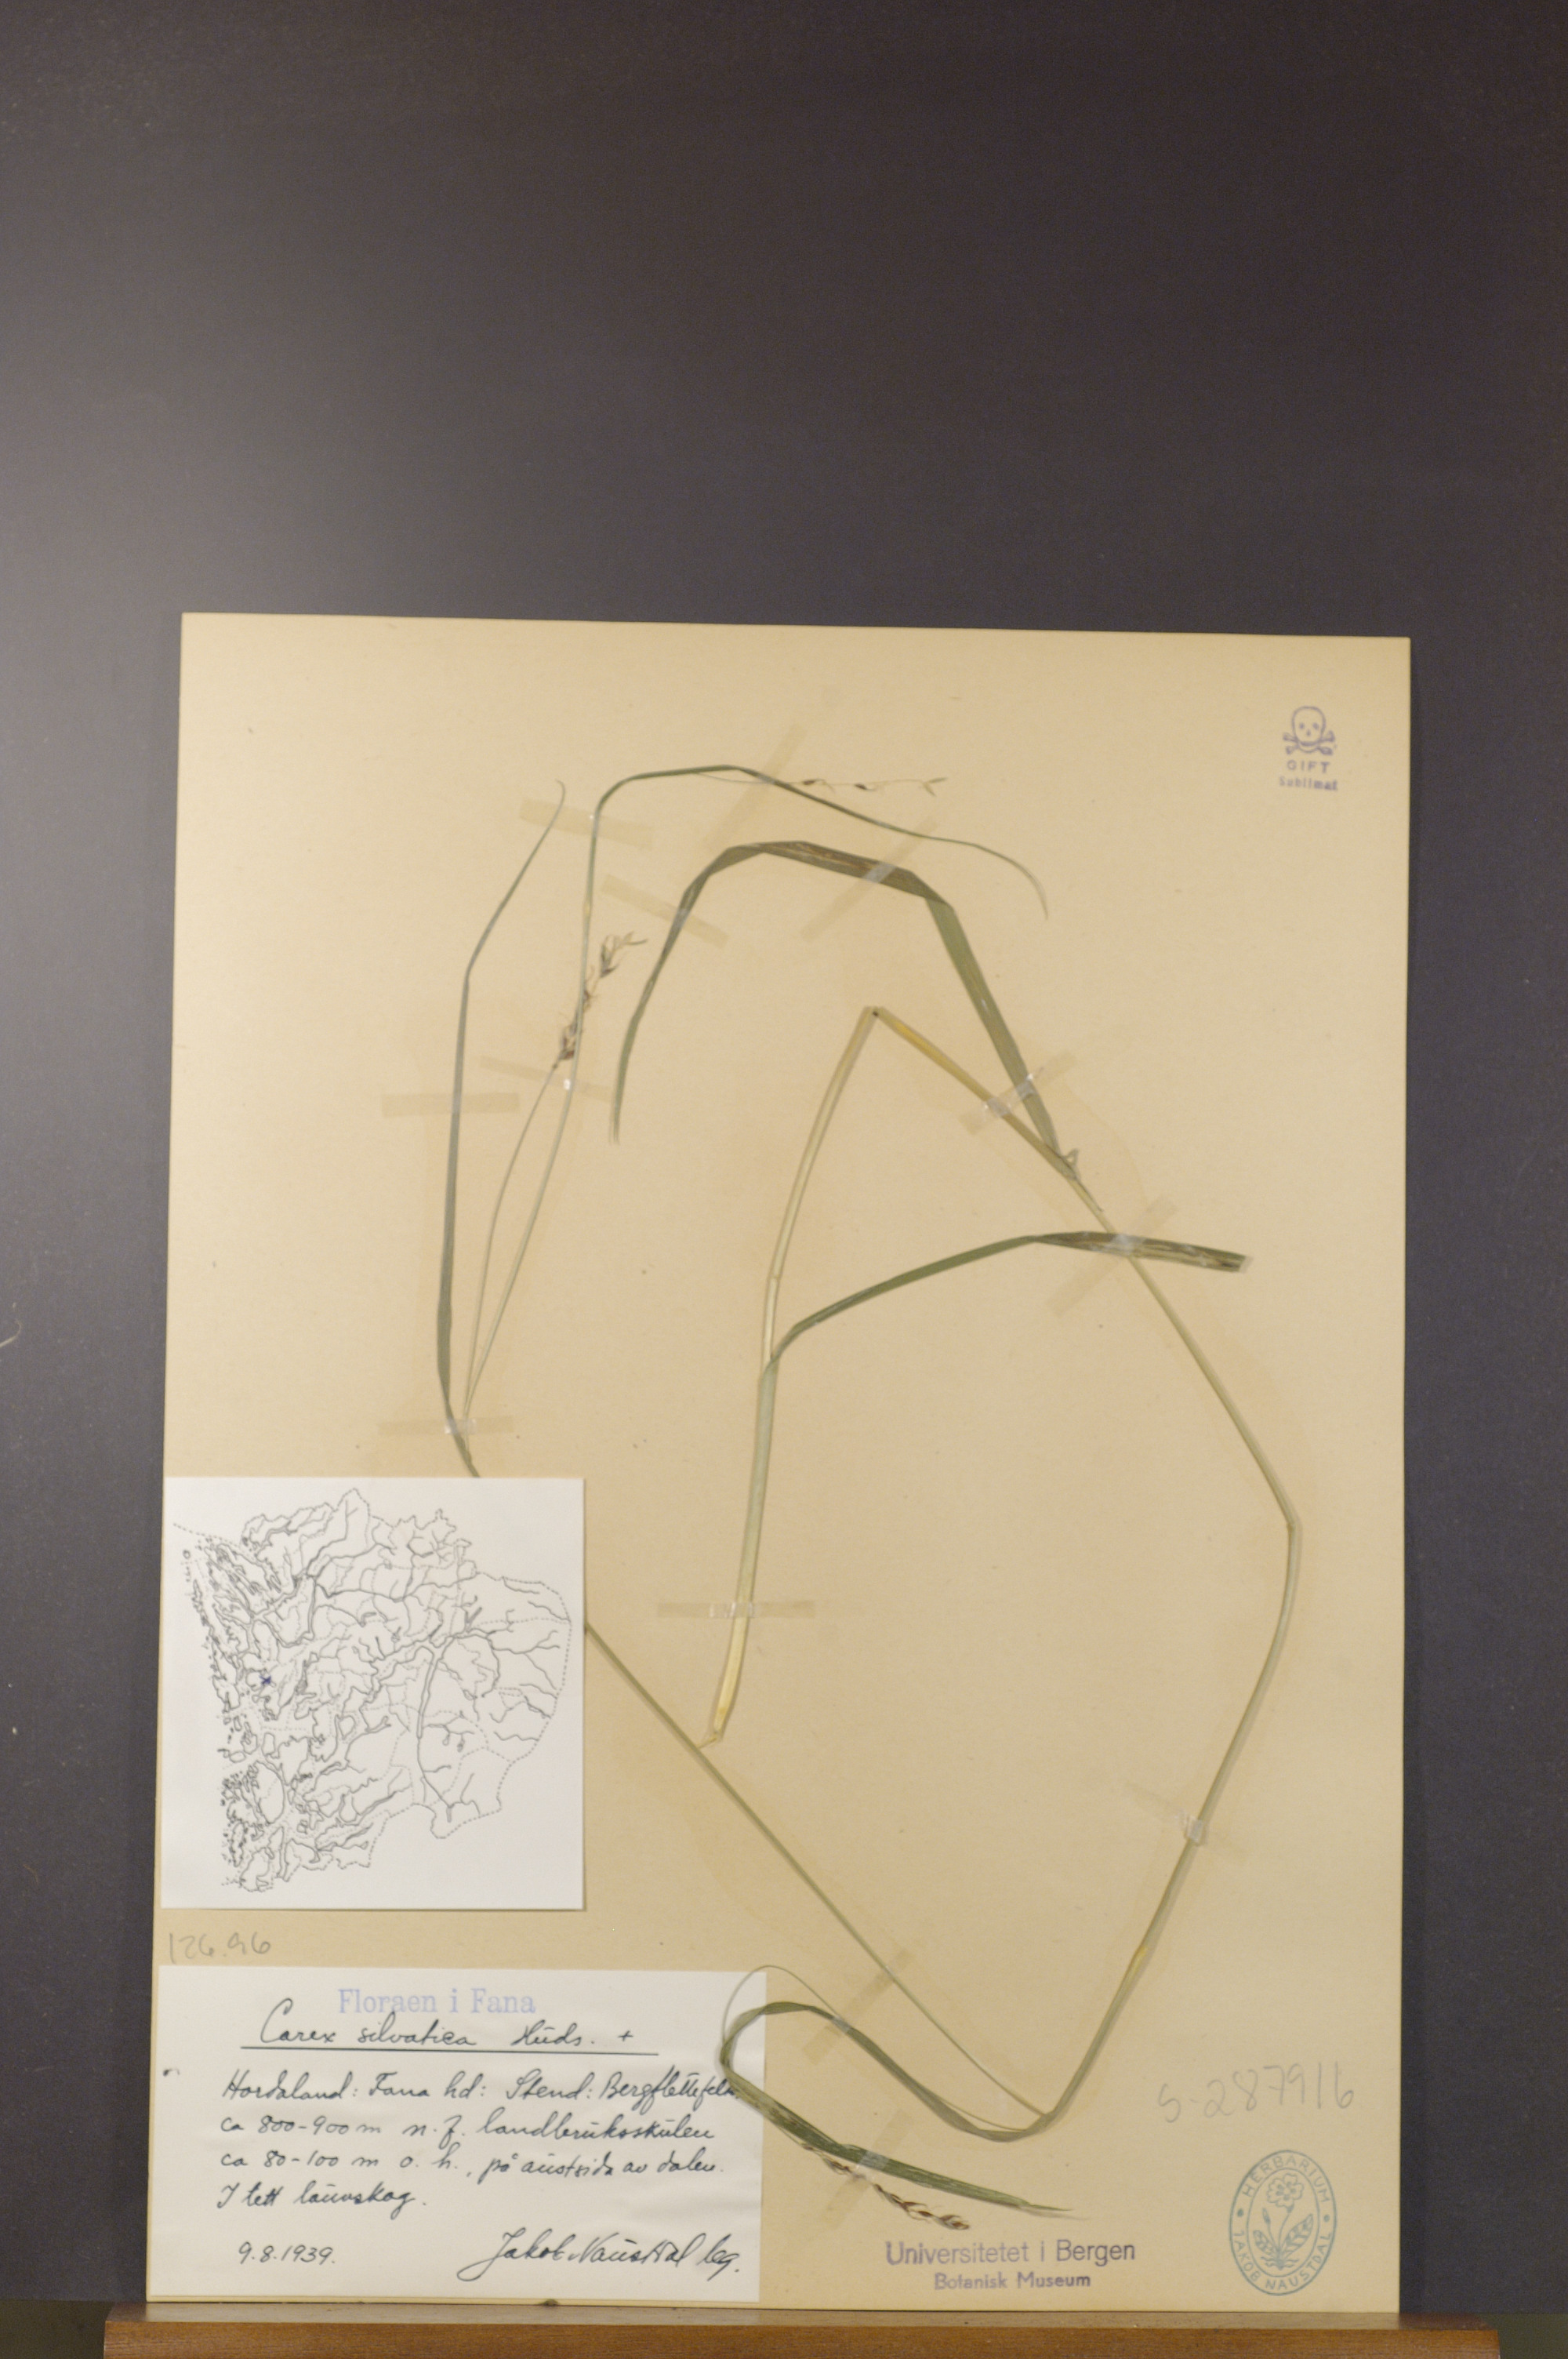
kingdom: Plantae
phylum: Tracheophyta
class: Liliopsida
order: Poales
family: Cyperaceae
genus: Carex
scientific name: Carex sylvatica
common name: Wood-sedge
